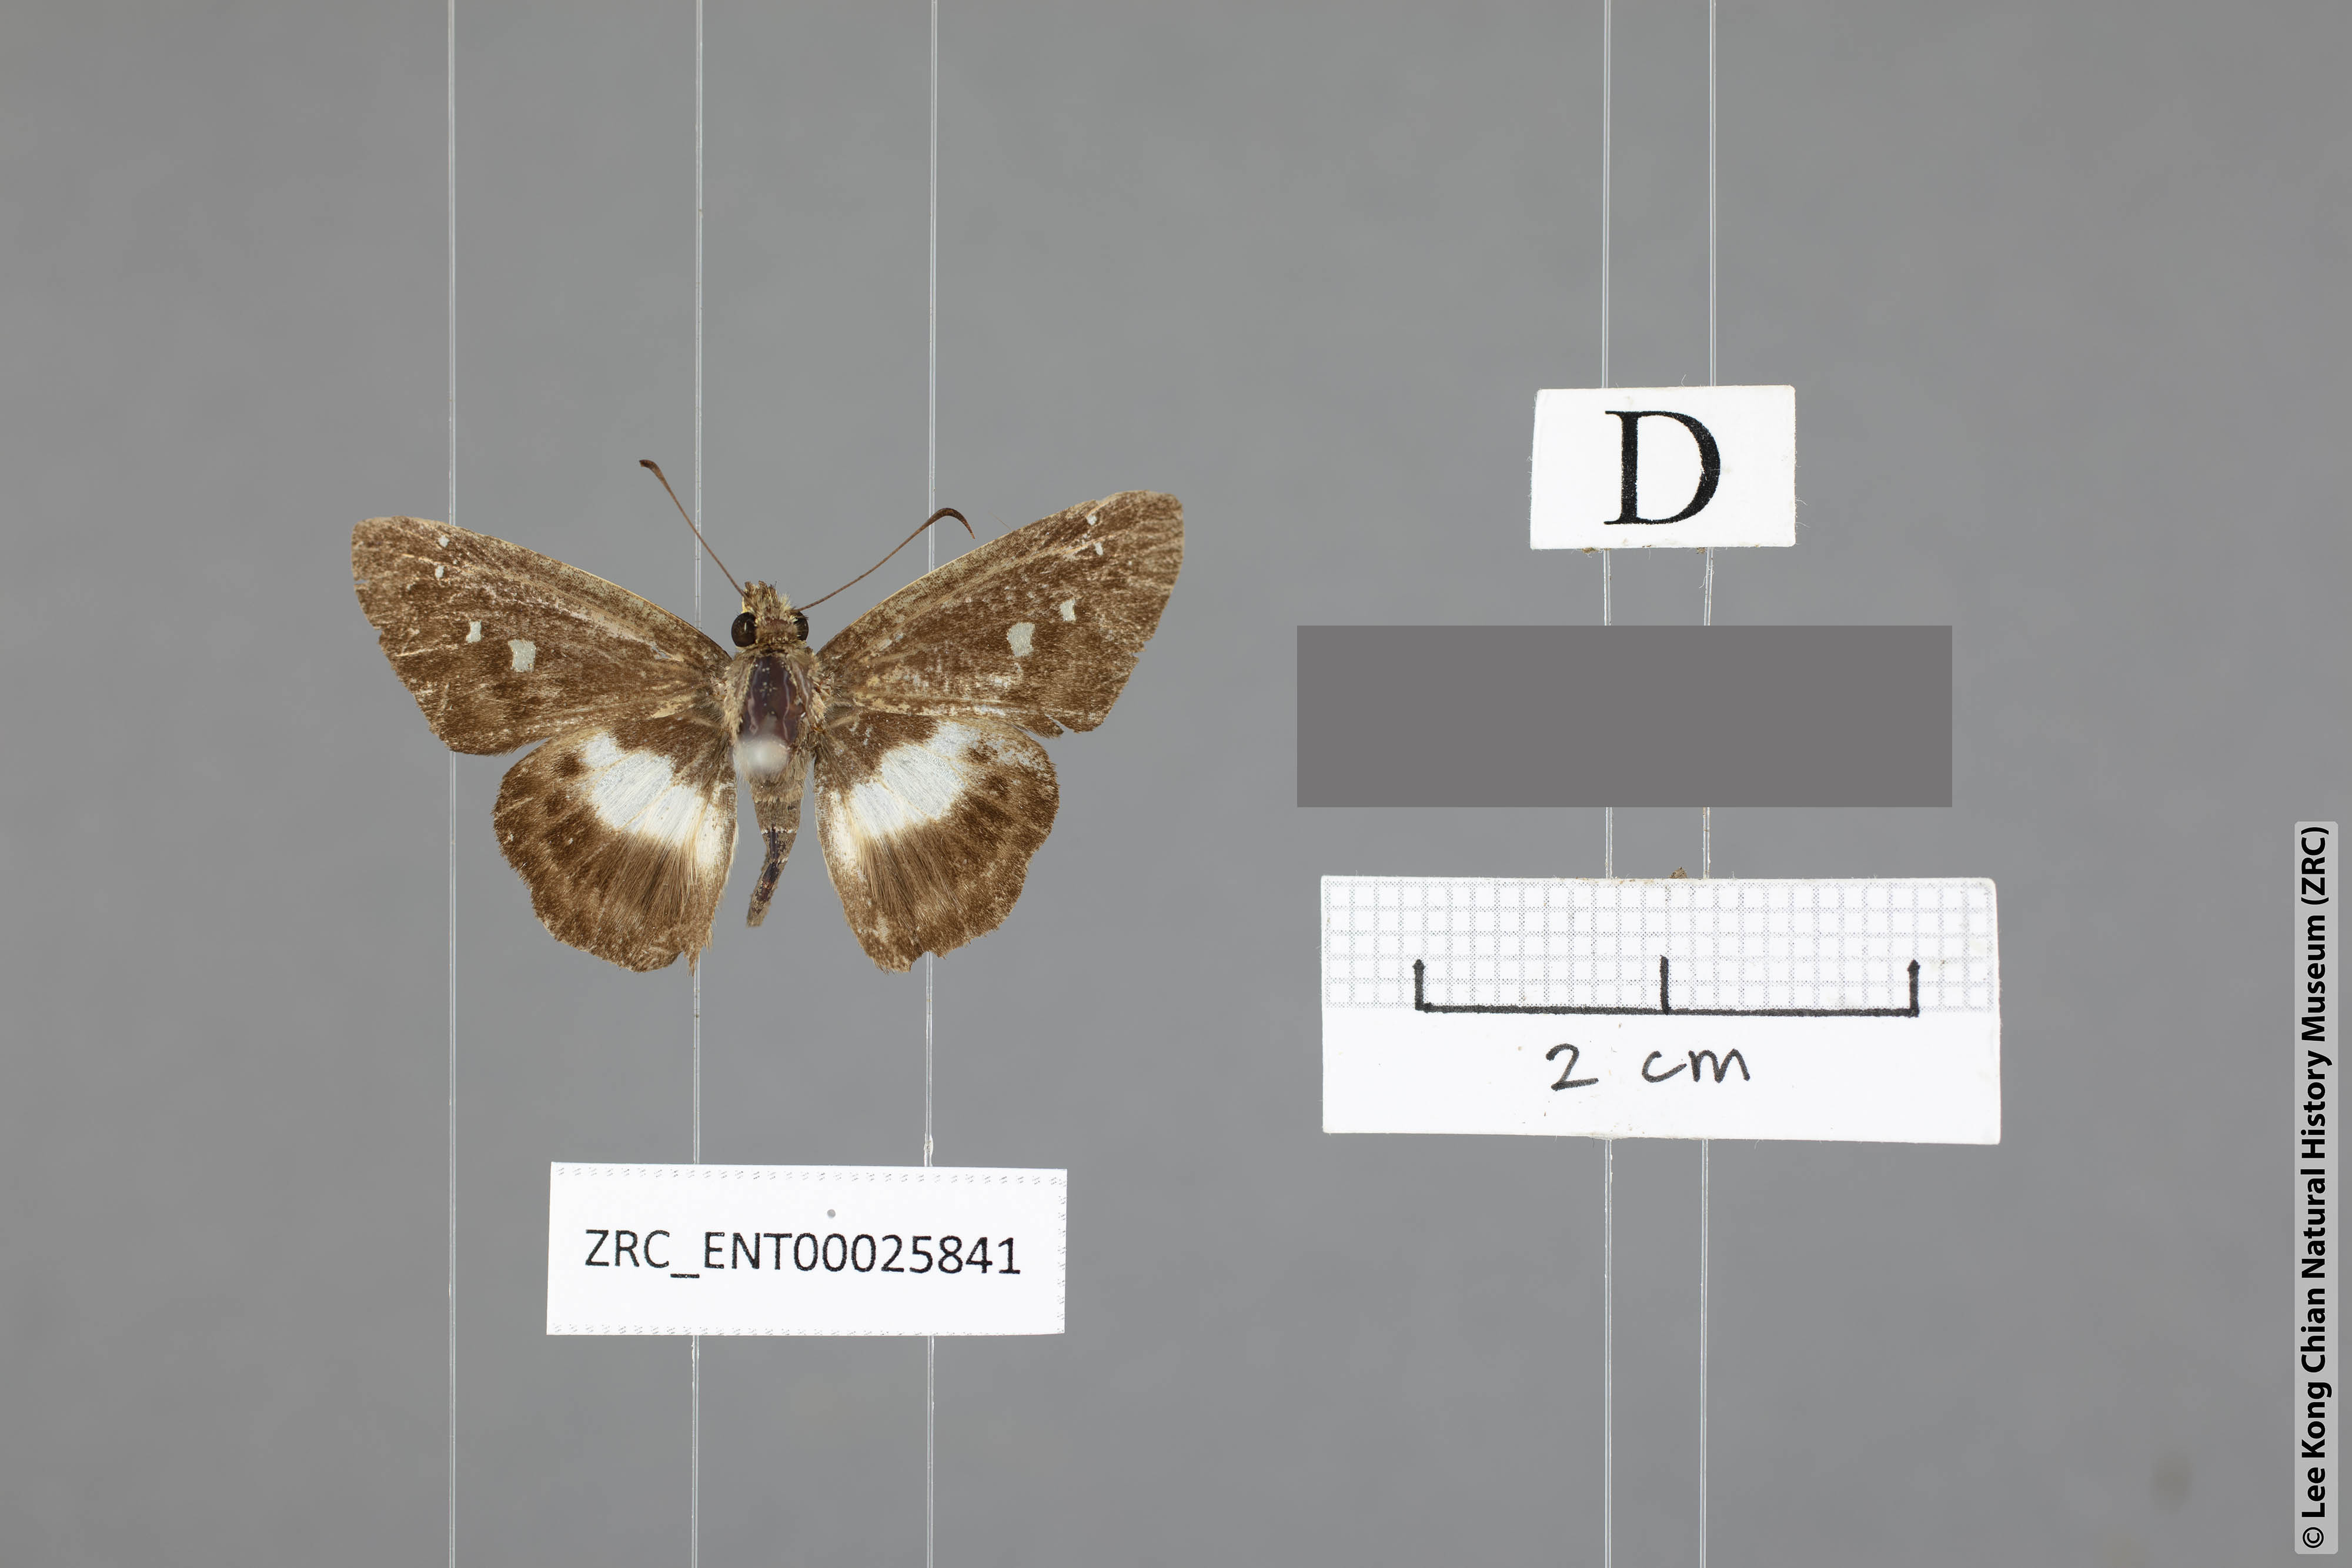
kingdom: Animalia
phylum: Arthropoda
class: Insecta
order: Lepidoptera
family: Hesperiidae
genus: Daimio
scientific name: Daimio Gerosis phisara
